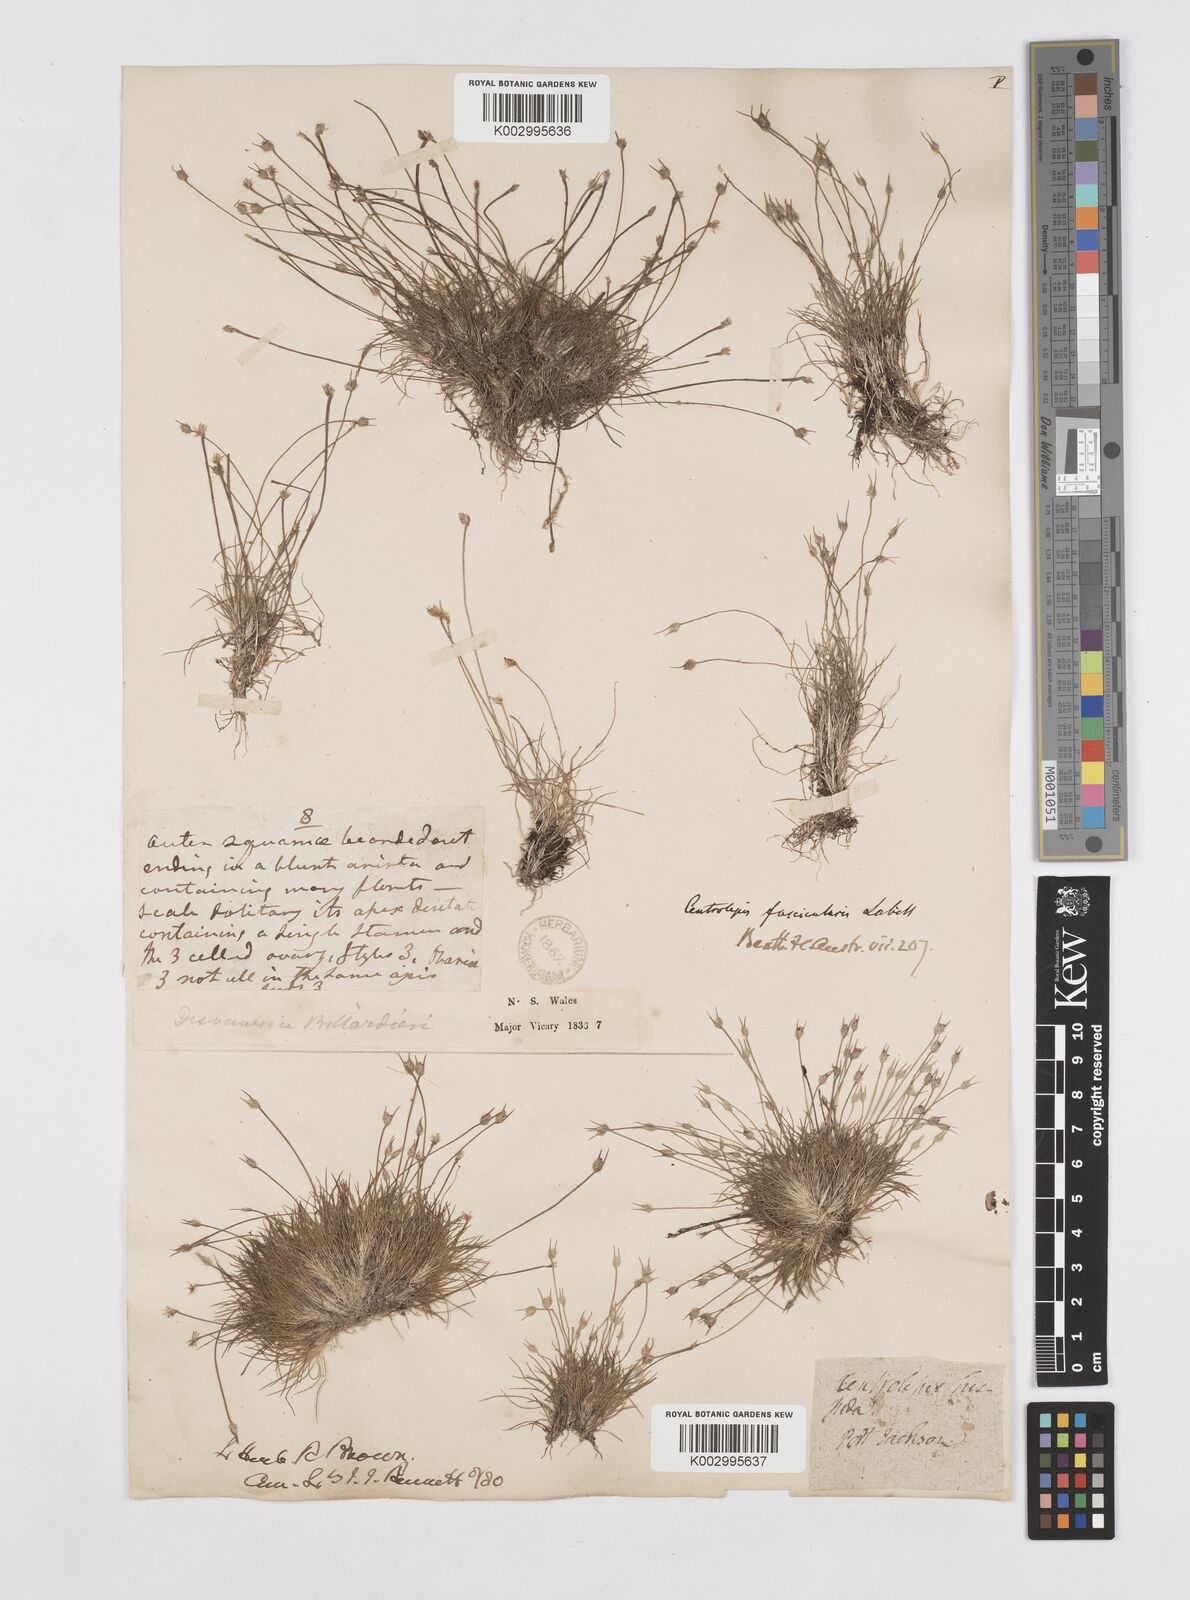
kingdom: Plantae
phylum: Tracheophyta
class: Liliopsida
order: Poales
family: Restionaceae
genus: Centrolepis
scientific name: Centrolepis fascicularis
